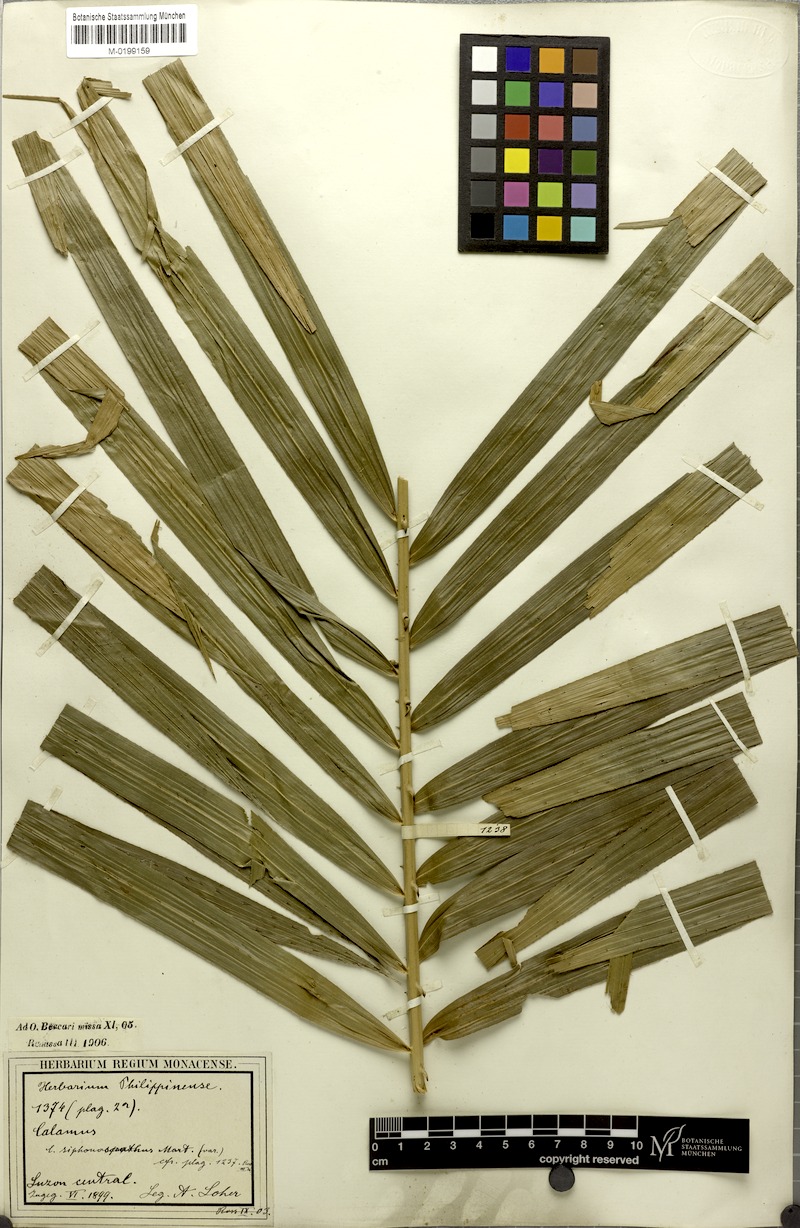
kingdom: Plantae
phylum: Tracheophyta
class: Liliopsida
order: Arecales
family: Arecaceae
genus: Calamus
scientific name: Calamus siphonospathus
